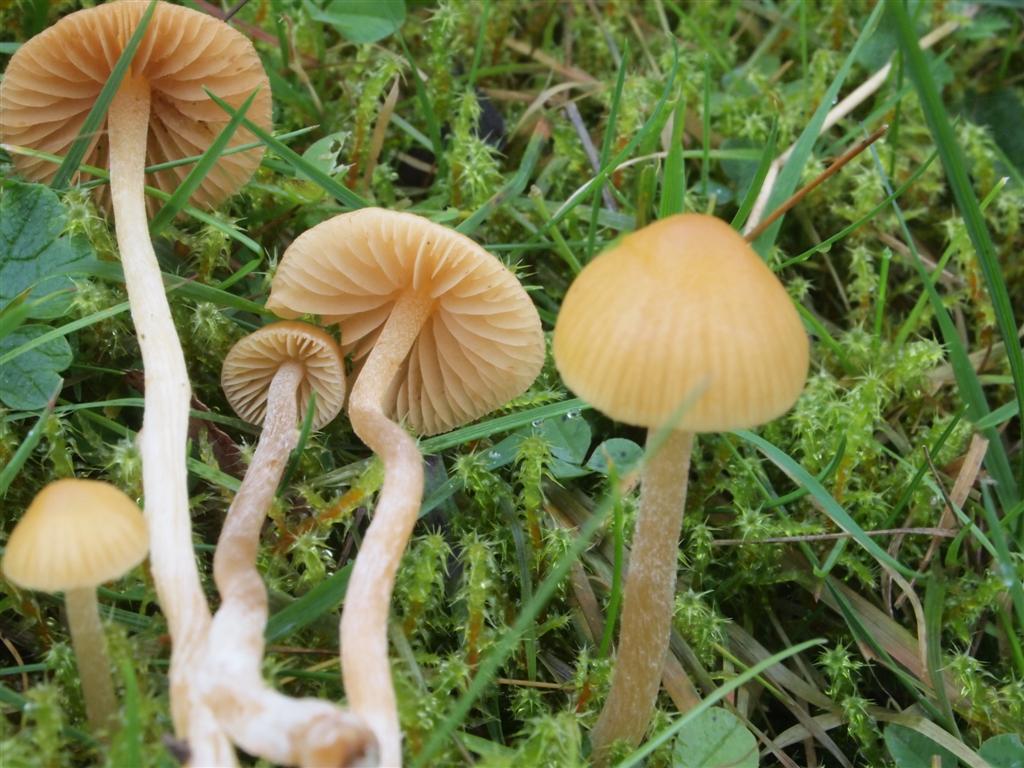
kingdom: Fungi
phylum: Basidiomycota
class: Agaricomycetes
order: Agaricales
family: Hymenogastraceae
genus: Galerina
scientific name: Galerina graminea
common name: plæne-hjelmhat
